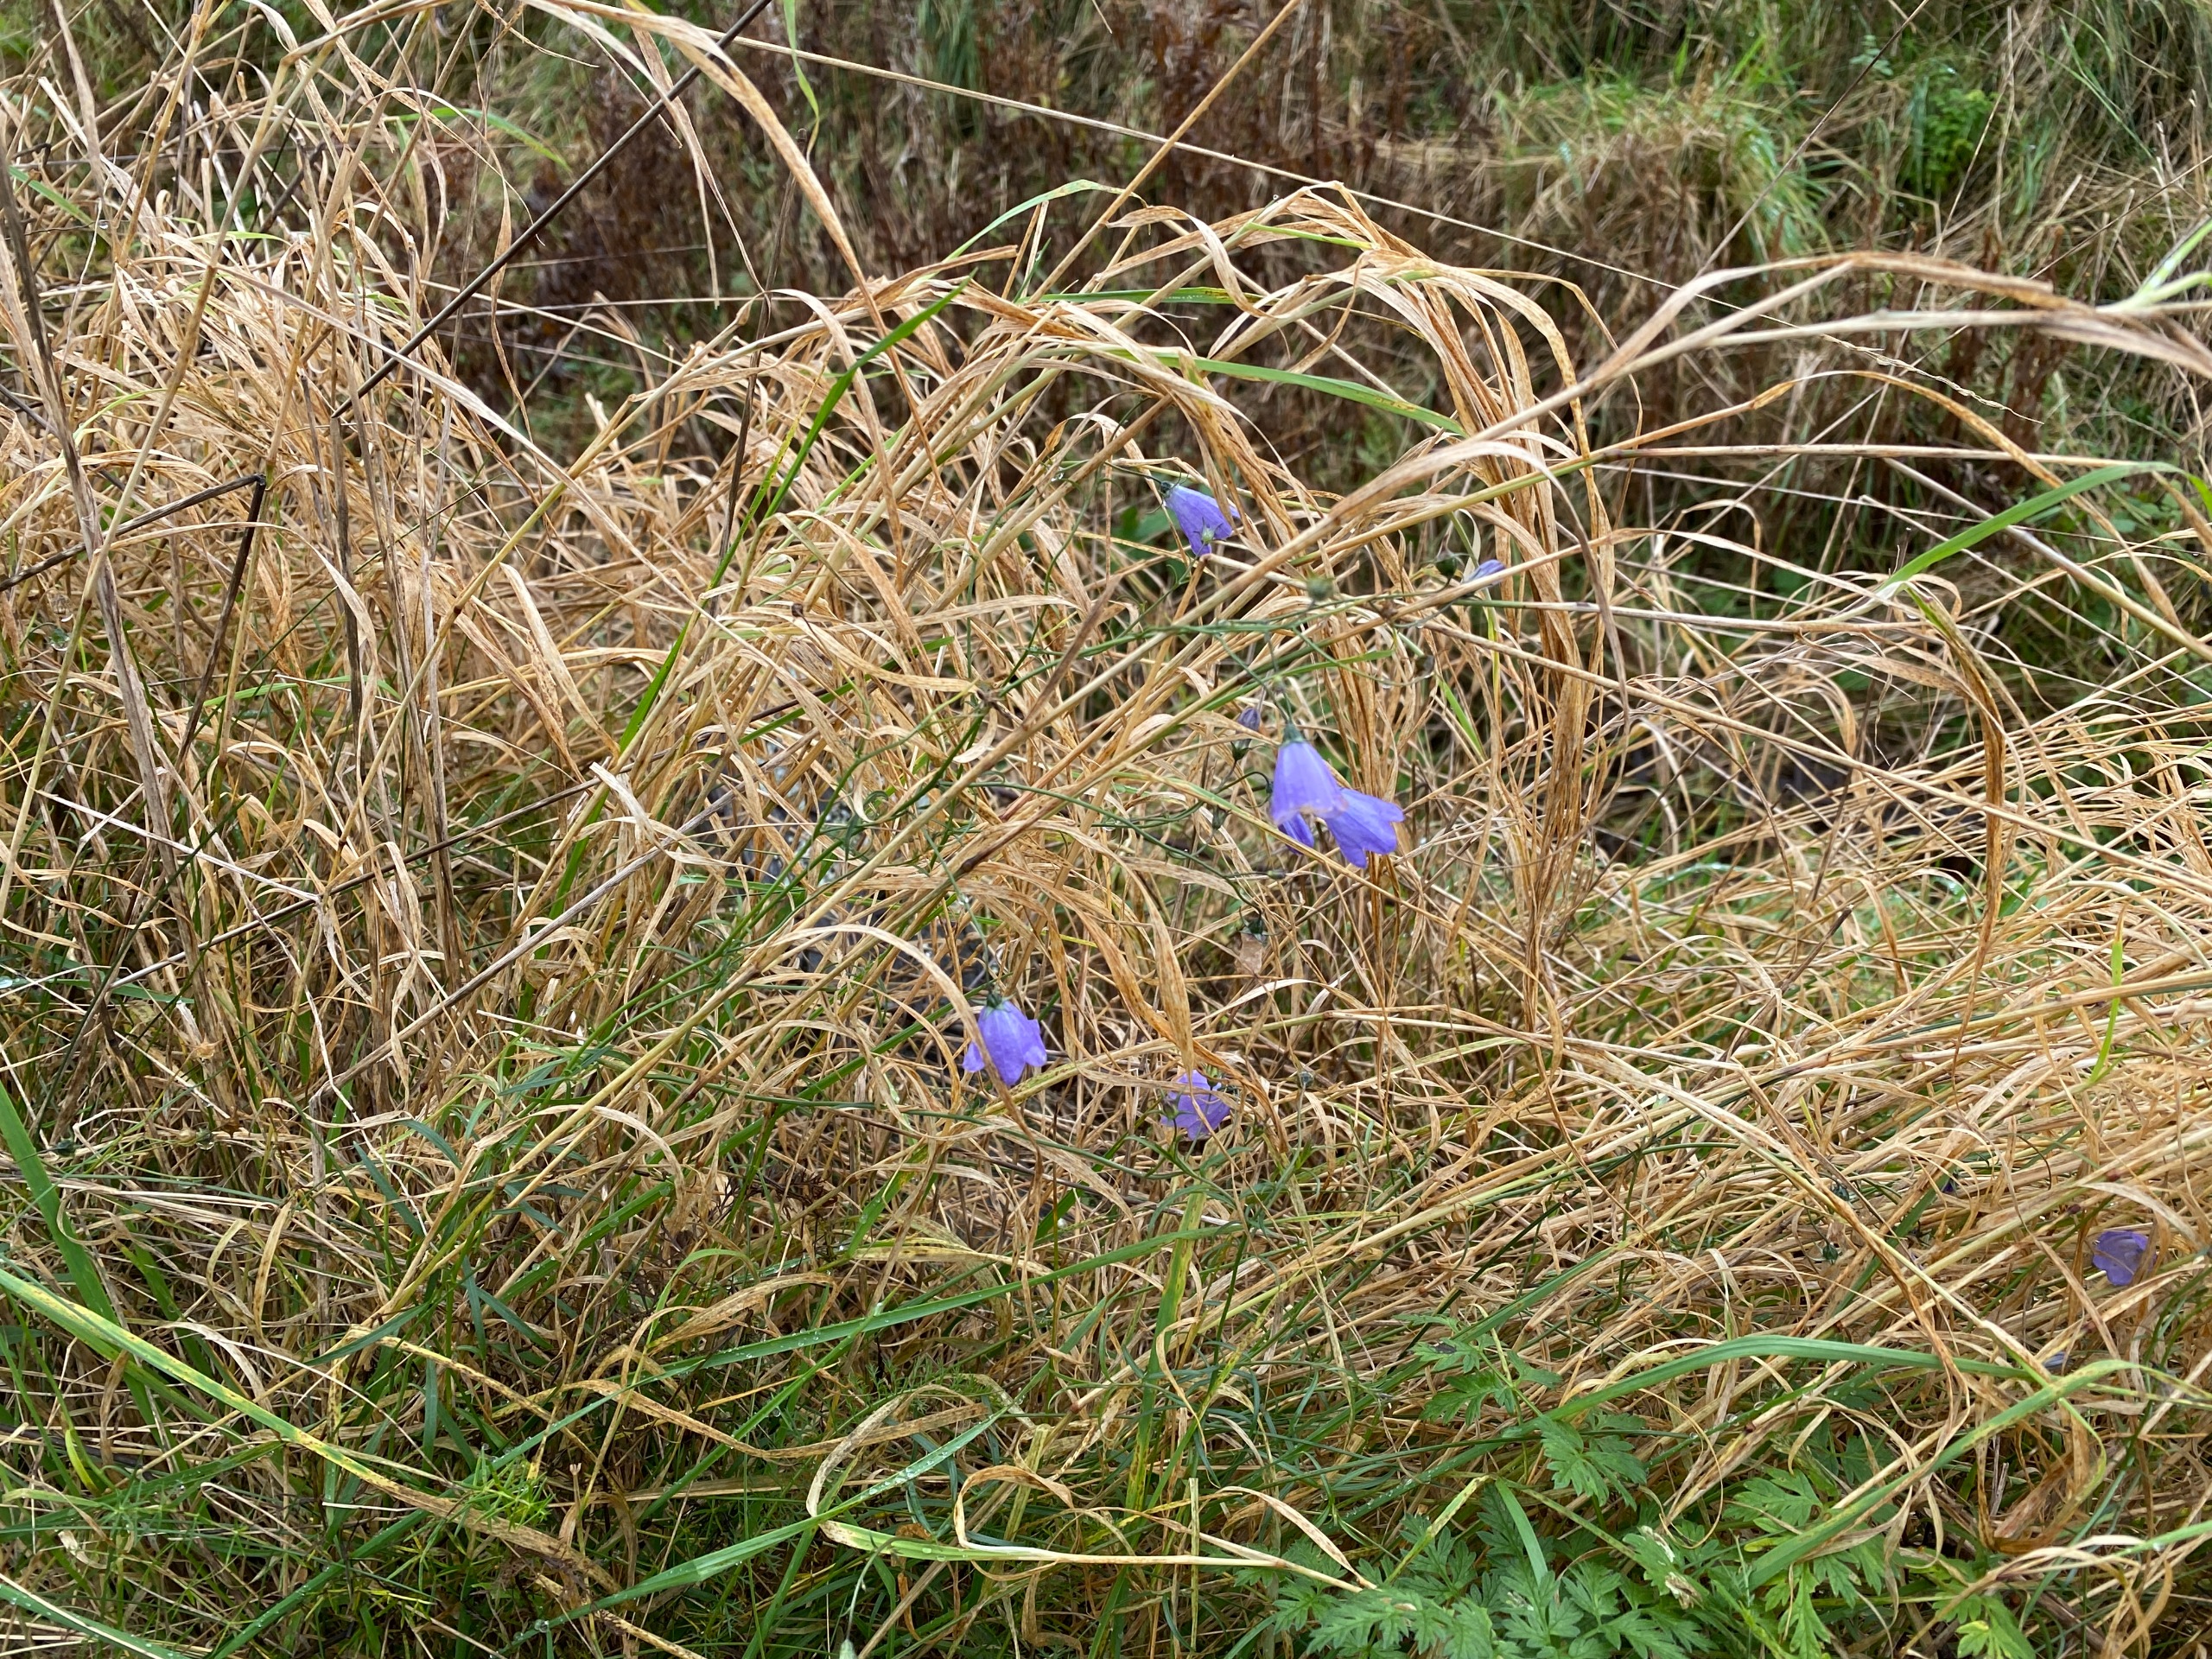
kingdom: Plantae
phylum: Tracheophyta
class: Magnoliopsida
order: Asterales
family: Campanulaceae
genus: Campanula
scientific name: Campanula rotundifolia
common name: Liden klokke
